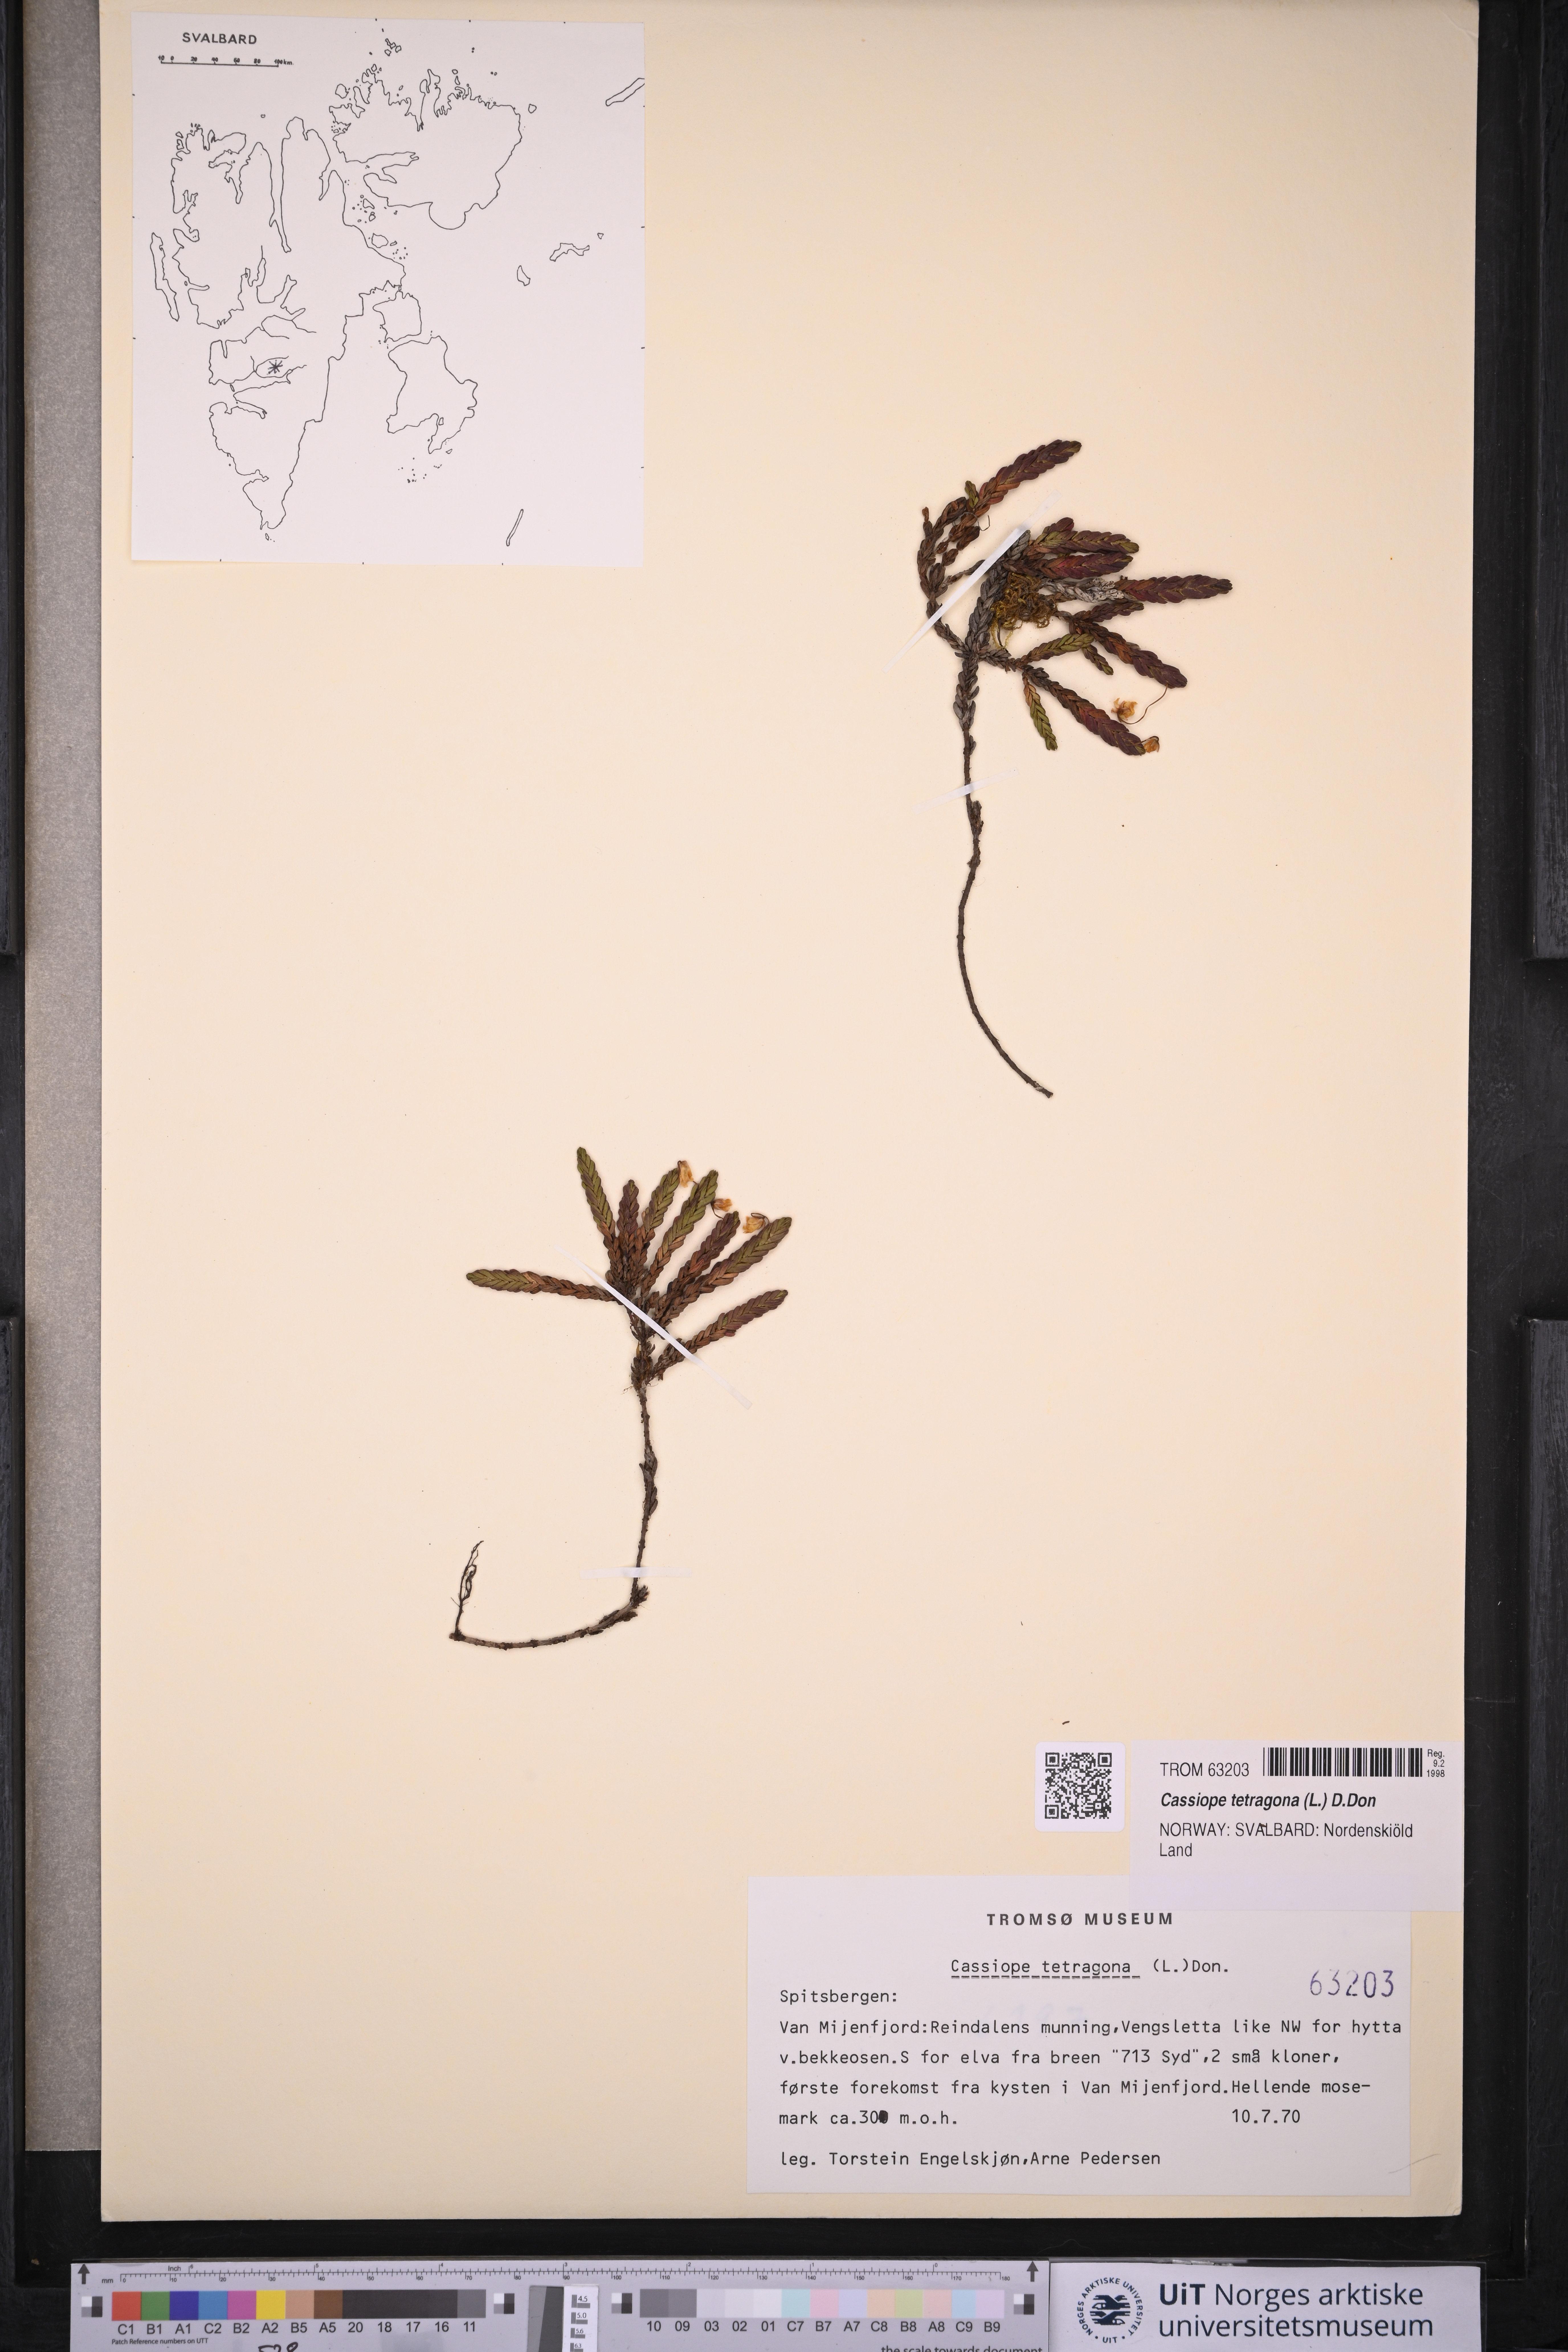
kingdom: Plantae
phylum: Tracheophyta
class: Magnoliopsida
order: Ericales
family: Ericaceae
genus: Cassiope
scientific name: Cassiope tetragona
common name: Arctic bell heather
